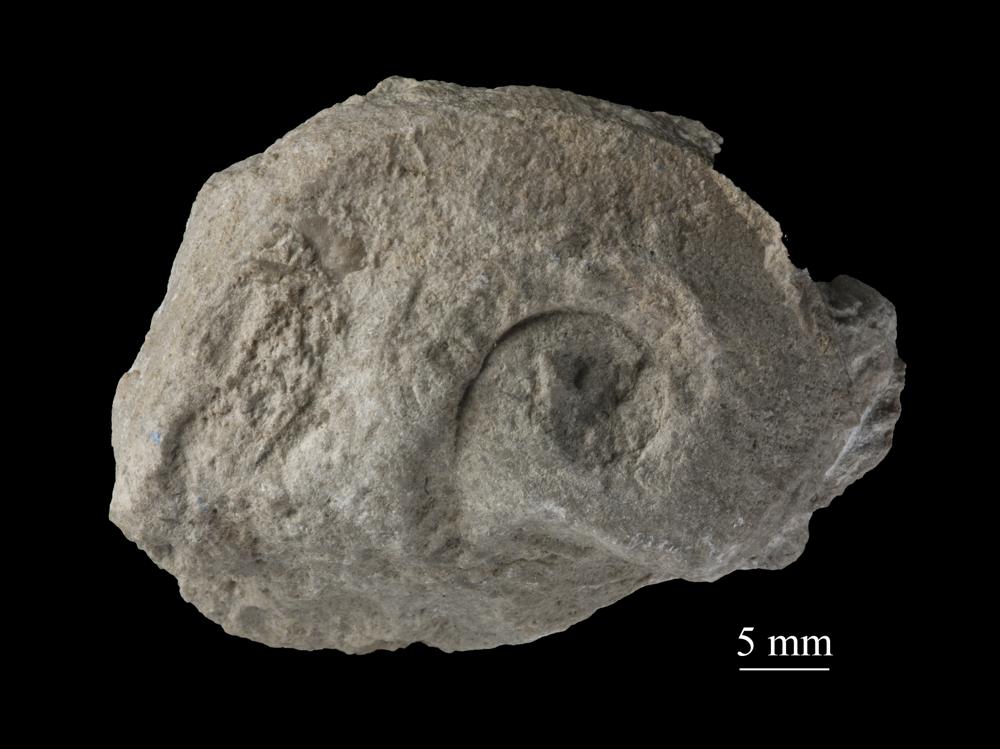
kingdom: Animalia
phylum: Mollusca
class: Gastropoda
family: Euomphalidae
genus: Ecculiomphalus
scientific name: Ecculiomphalus
